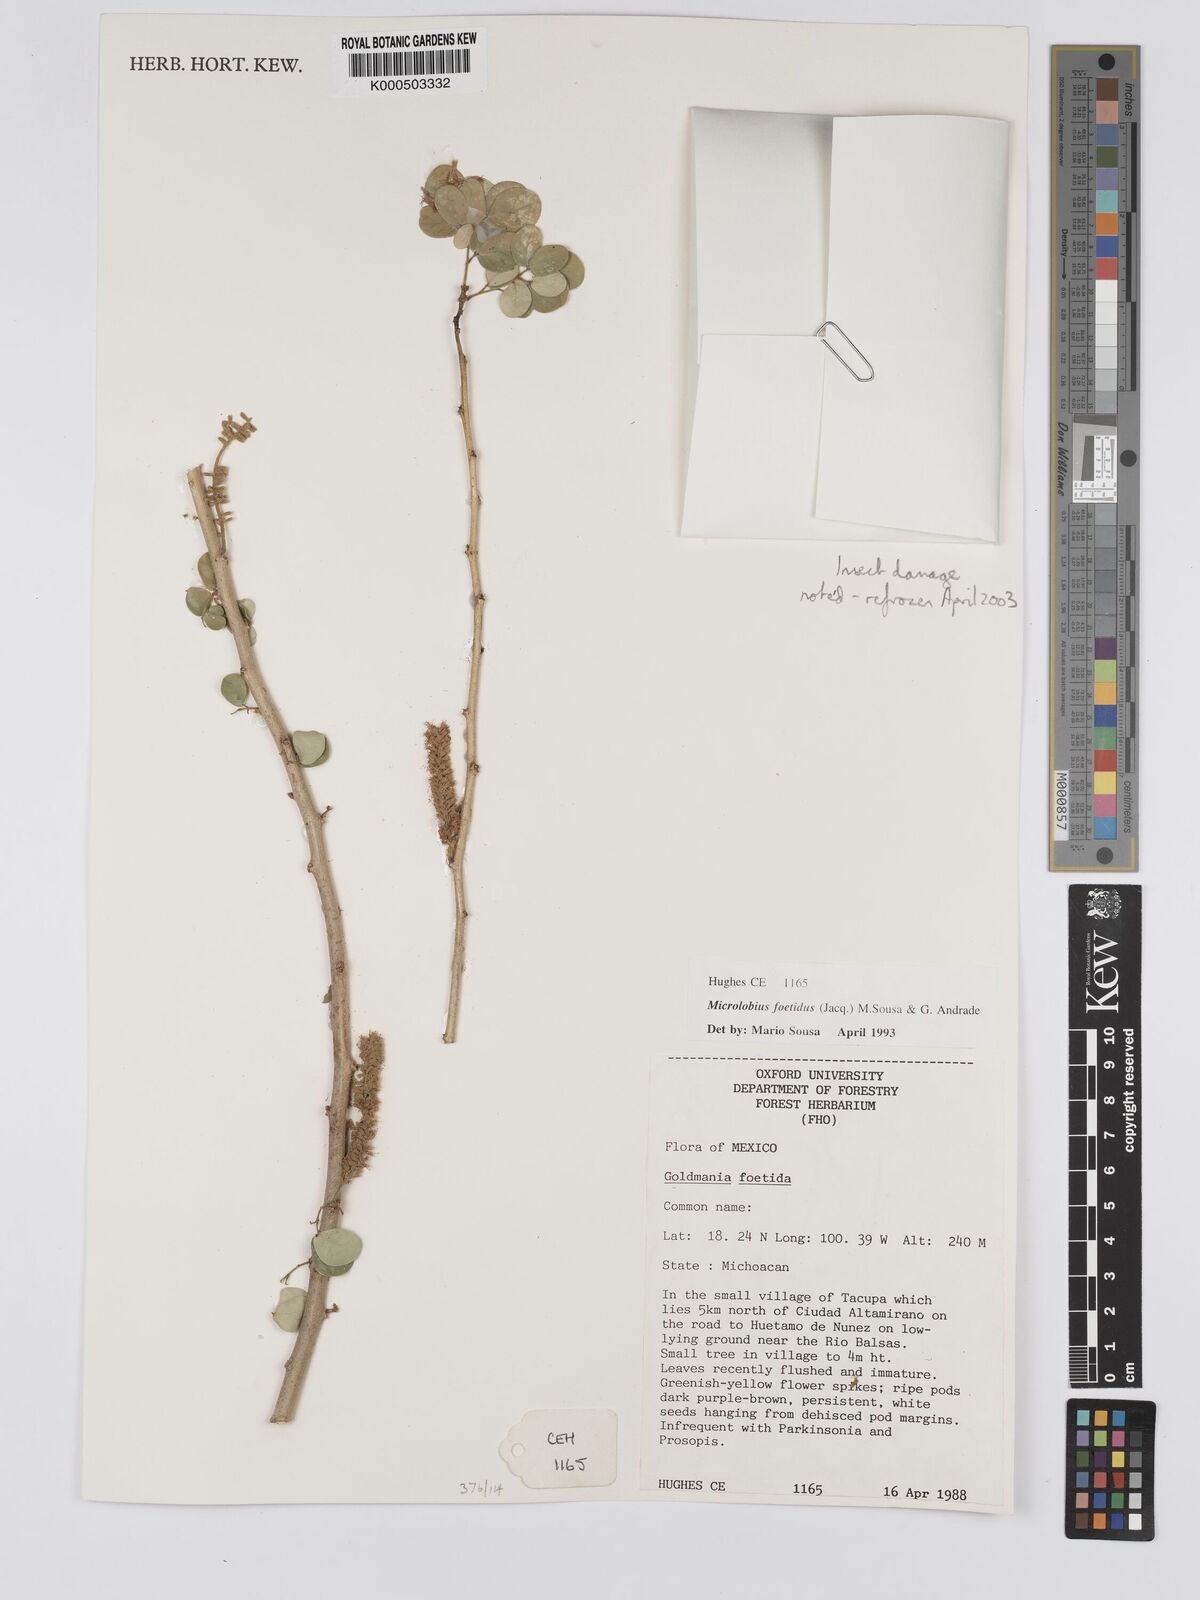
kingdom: Plantae
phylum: Tracheophyta
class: Magnoliopsida
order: Fabales
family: Fabaceae
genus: Microlobius
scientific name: Microlobius foetidus
